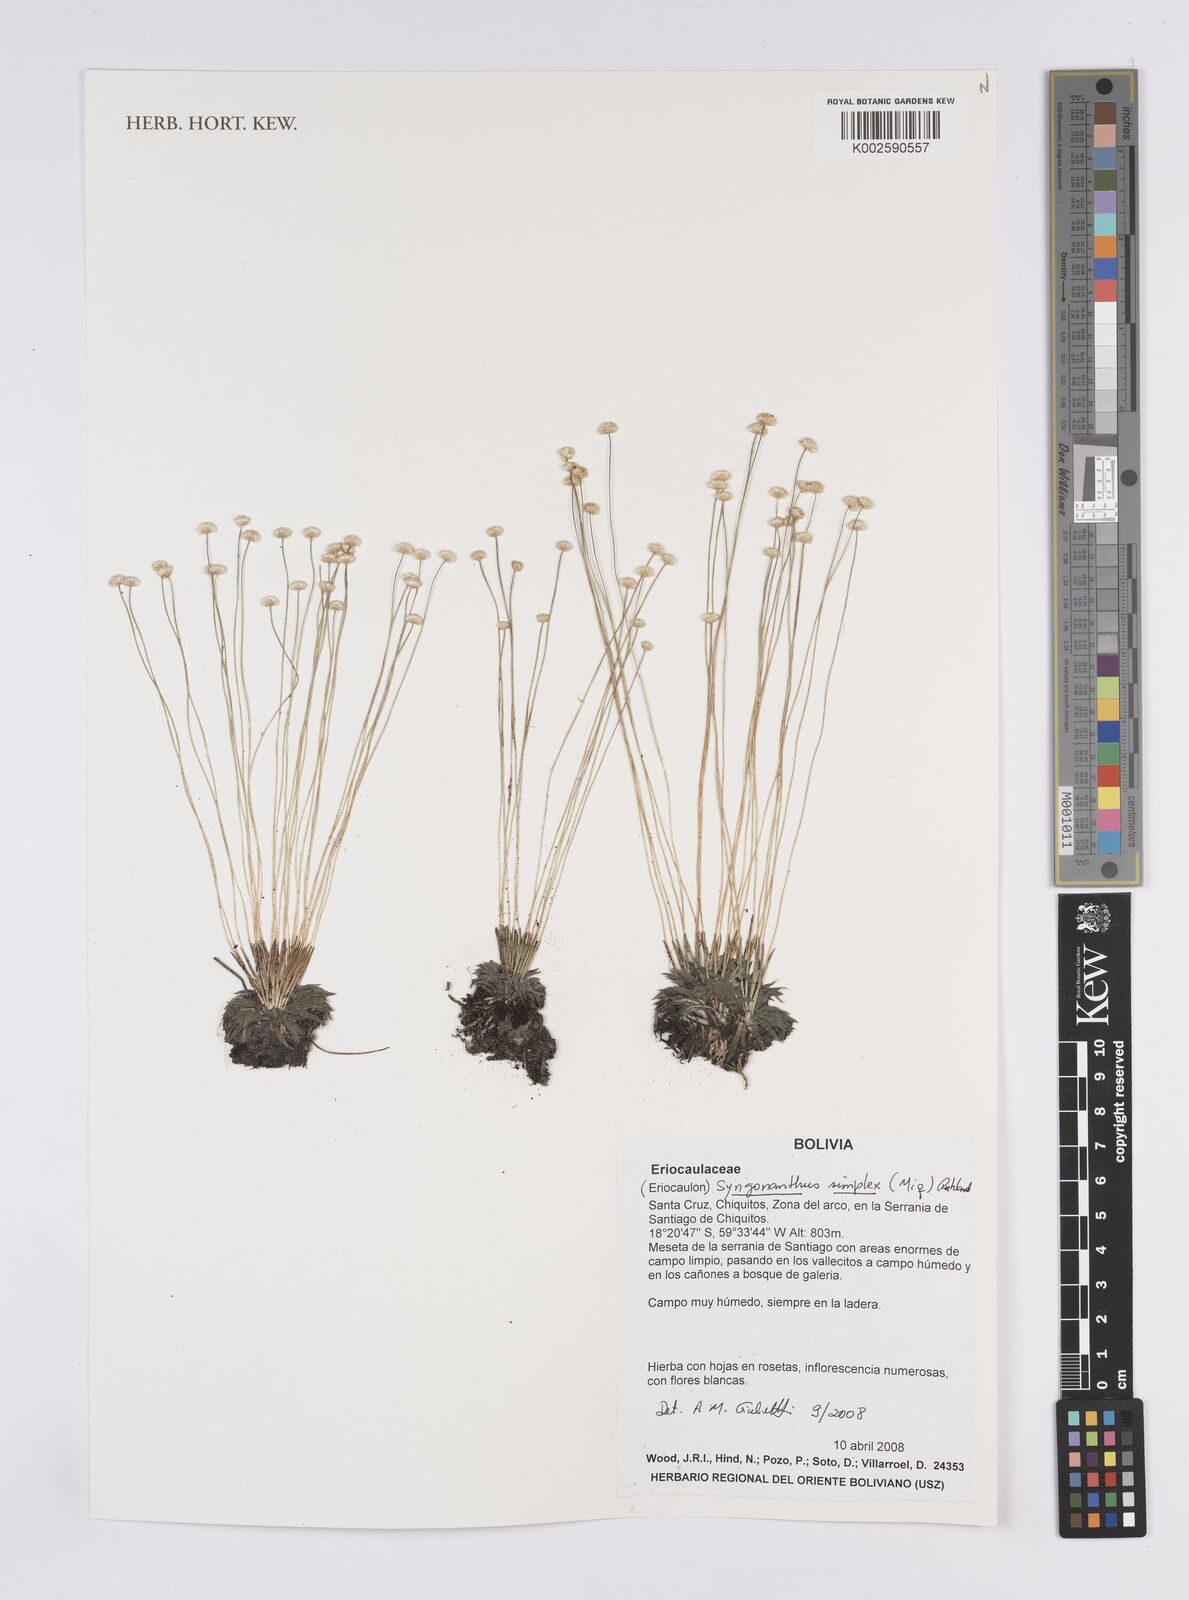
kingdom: Plantae
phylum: Tracheophyta
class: Liliopsida
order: Poales
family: Eriocaulaceae
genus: Syngonanthus
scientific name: Syngonanthus simplex
